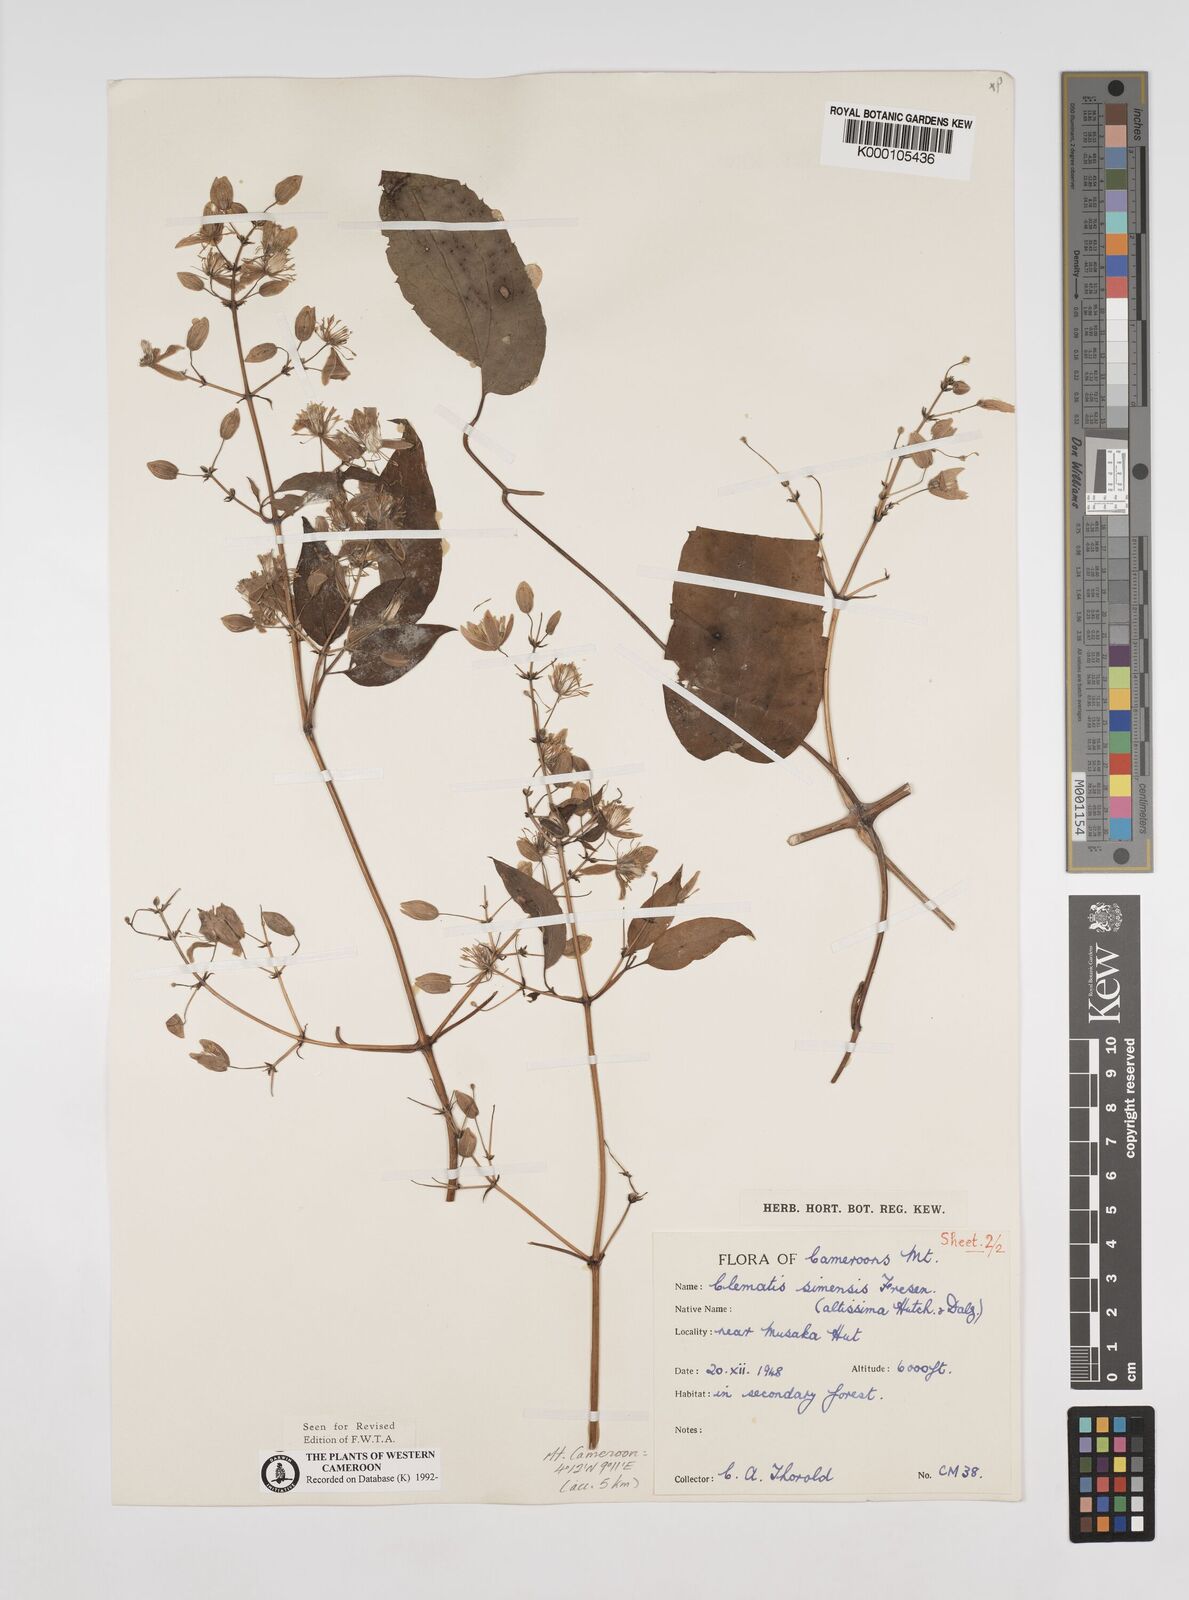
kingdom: Plantae
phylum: Tracheophyta
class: Magnoliopsida
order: Ranunculales
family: Ranunculaceae
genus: Clematis
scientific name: Clematis simensis
